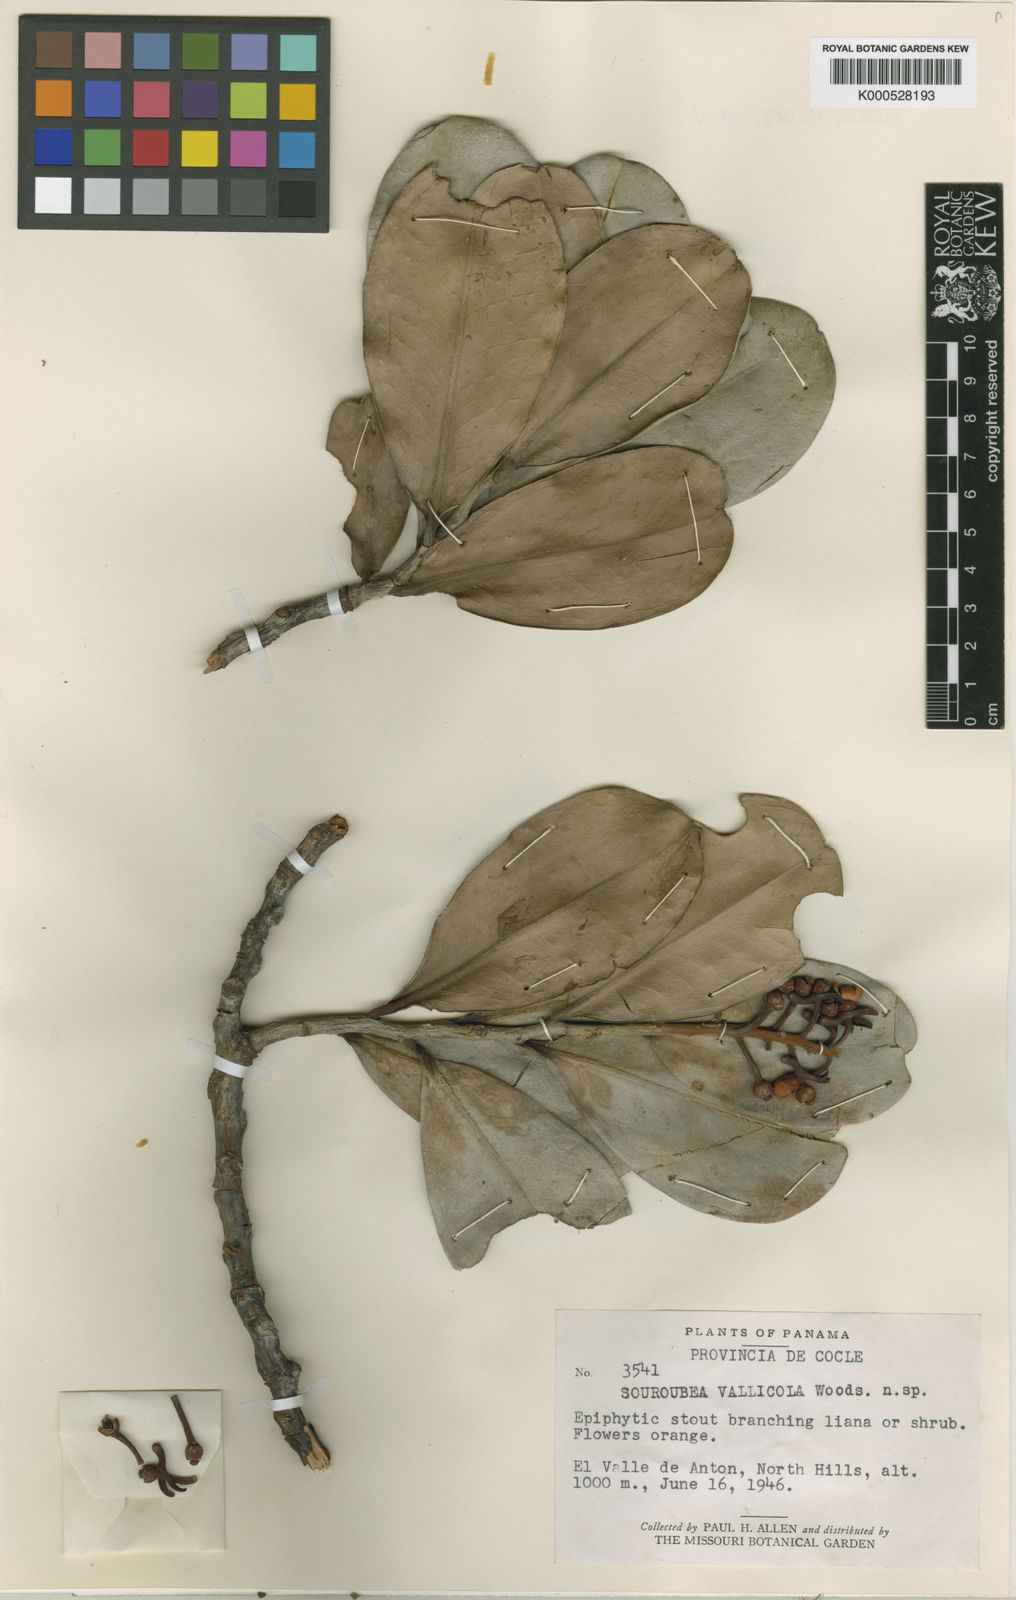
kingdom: Plantae
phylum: Tracheophyta
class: Magnoliopsida
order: Ericales
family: Marcgraviaceae
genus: Souroubea
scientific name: Souroubea vallicola
